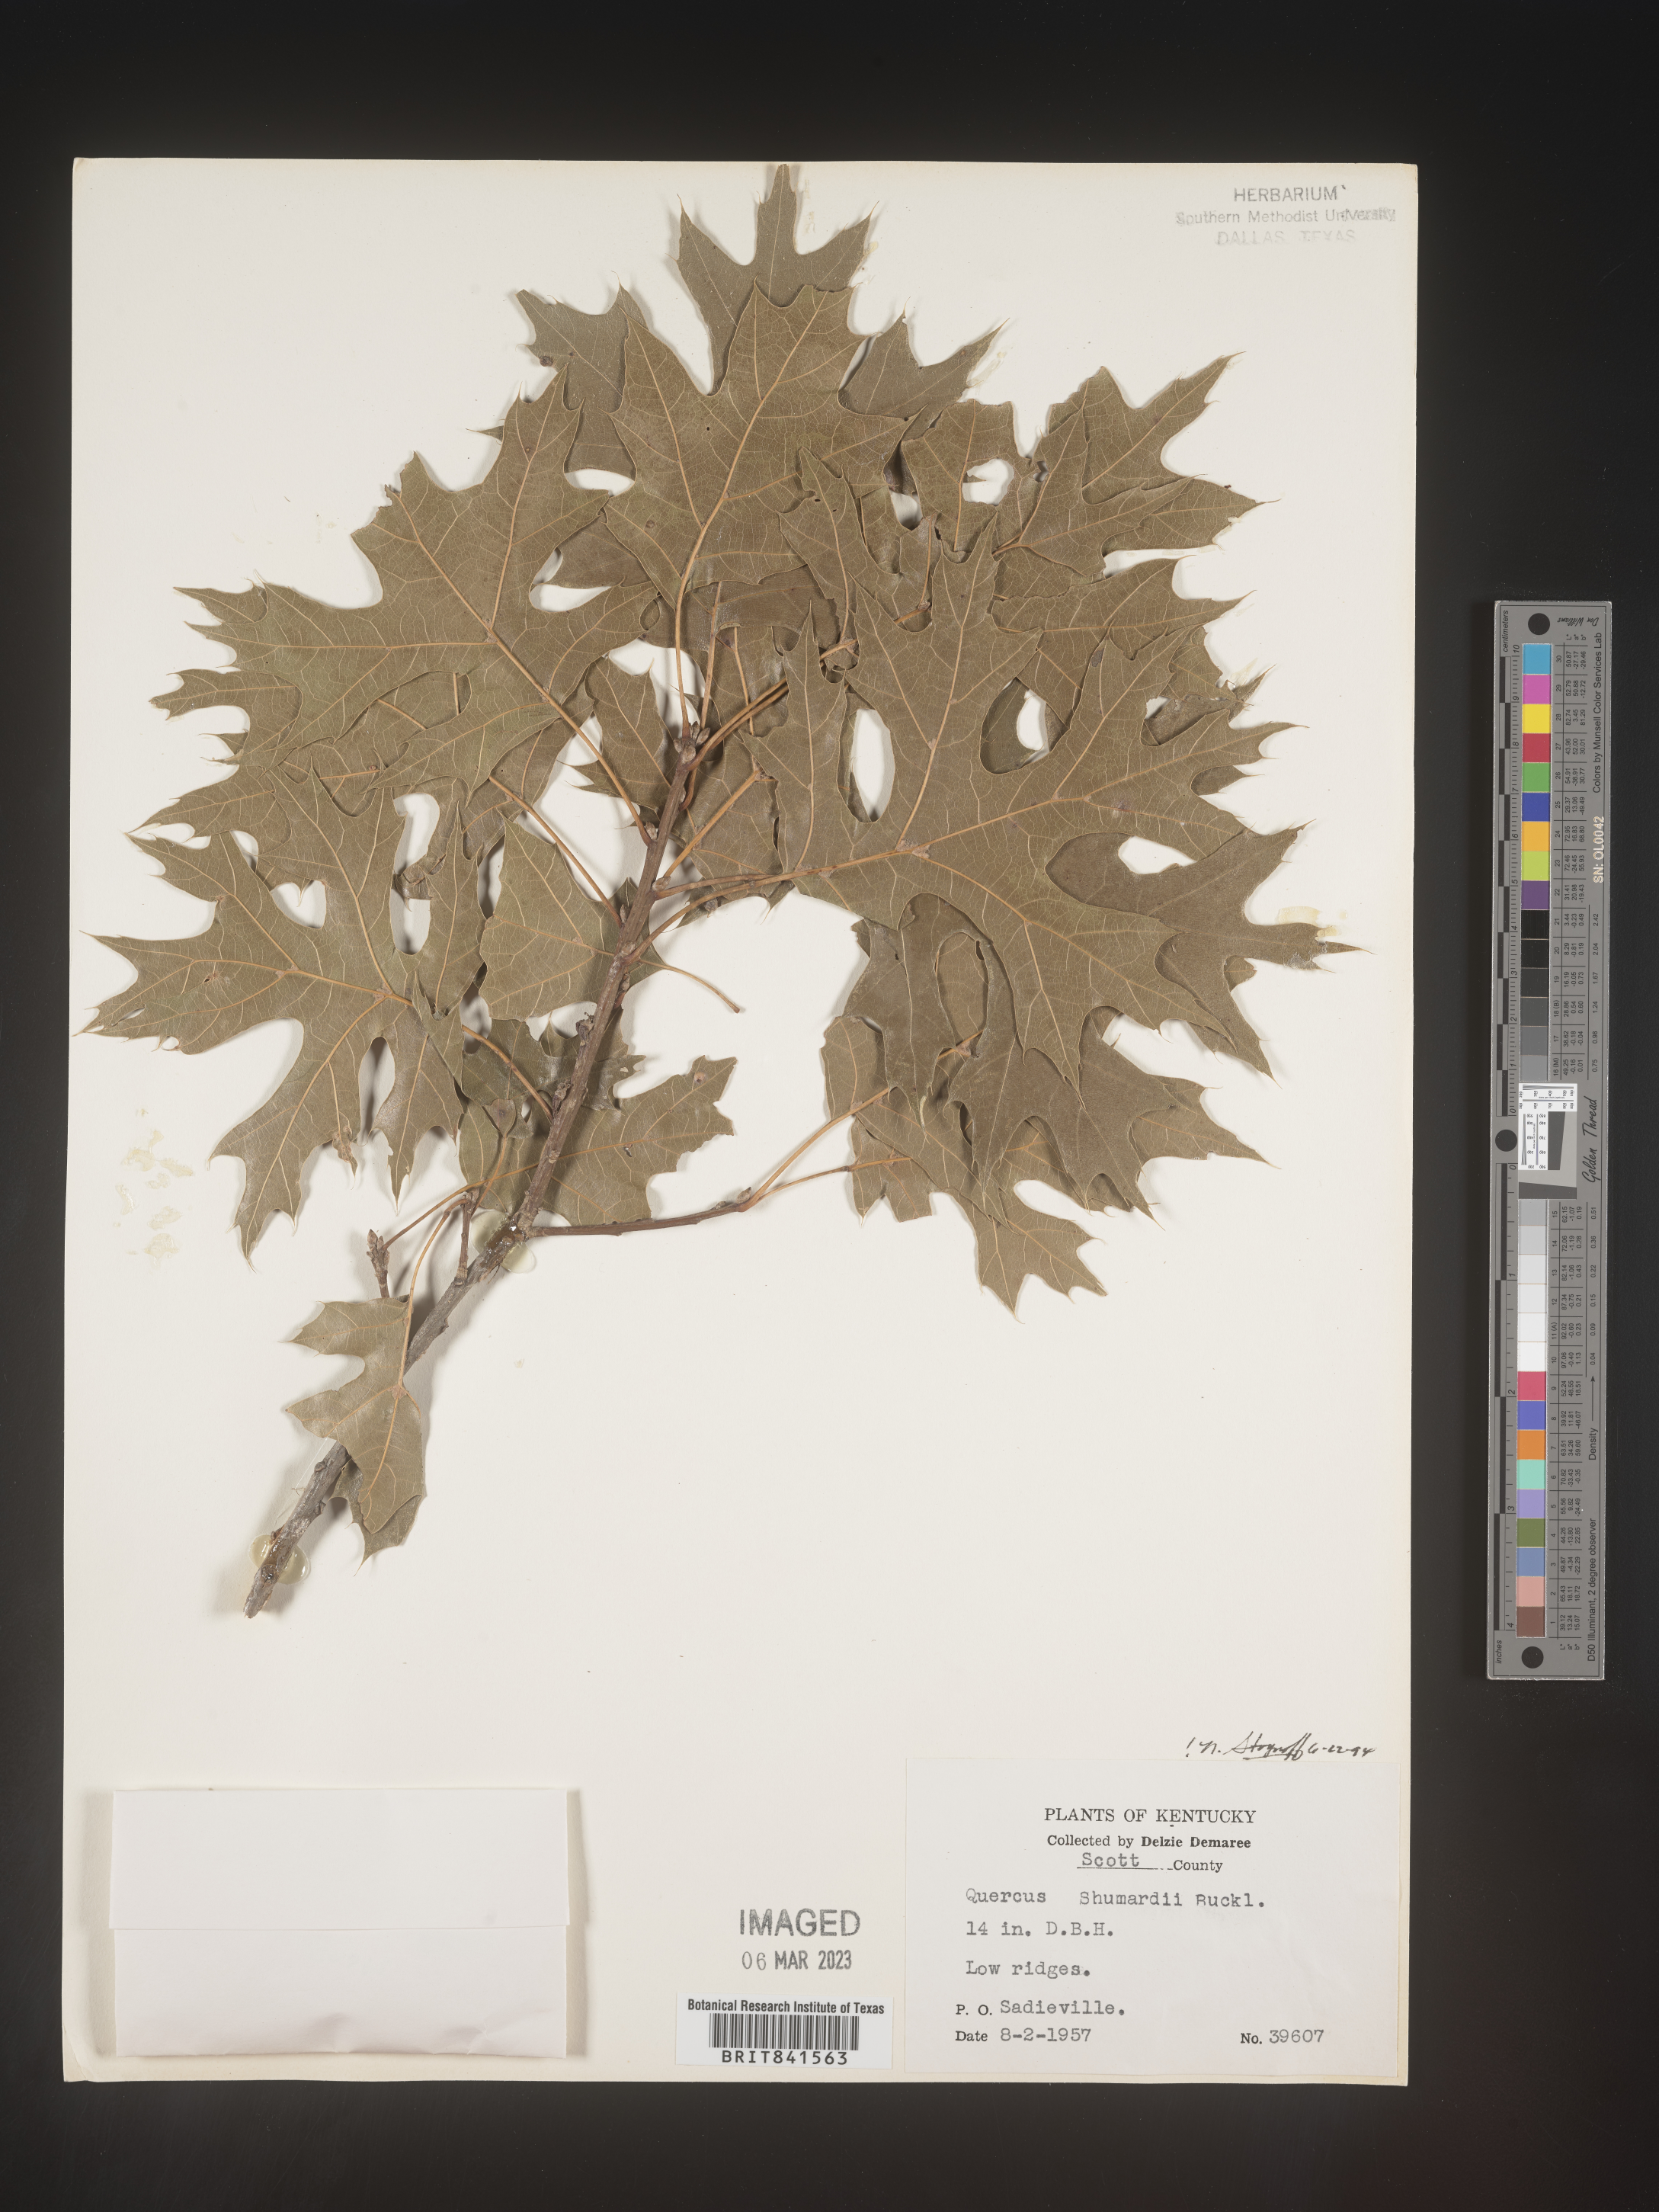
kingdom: Plantae
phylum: Tracheophyta
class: Magnoliopsida
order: Fagales
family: Fagaceae
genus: Quercus
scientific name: Quercus shumardii
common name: Shumard oak
